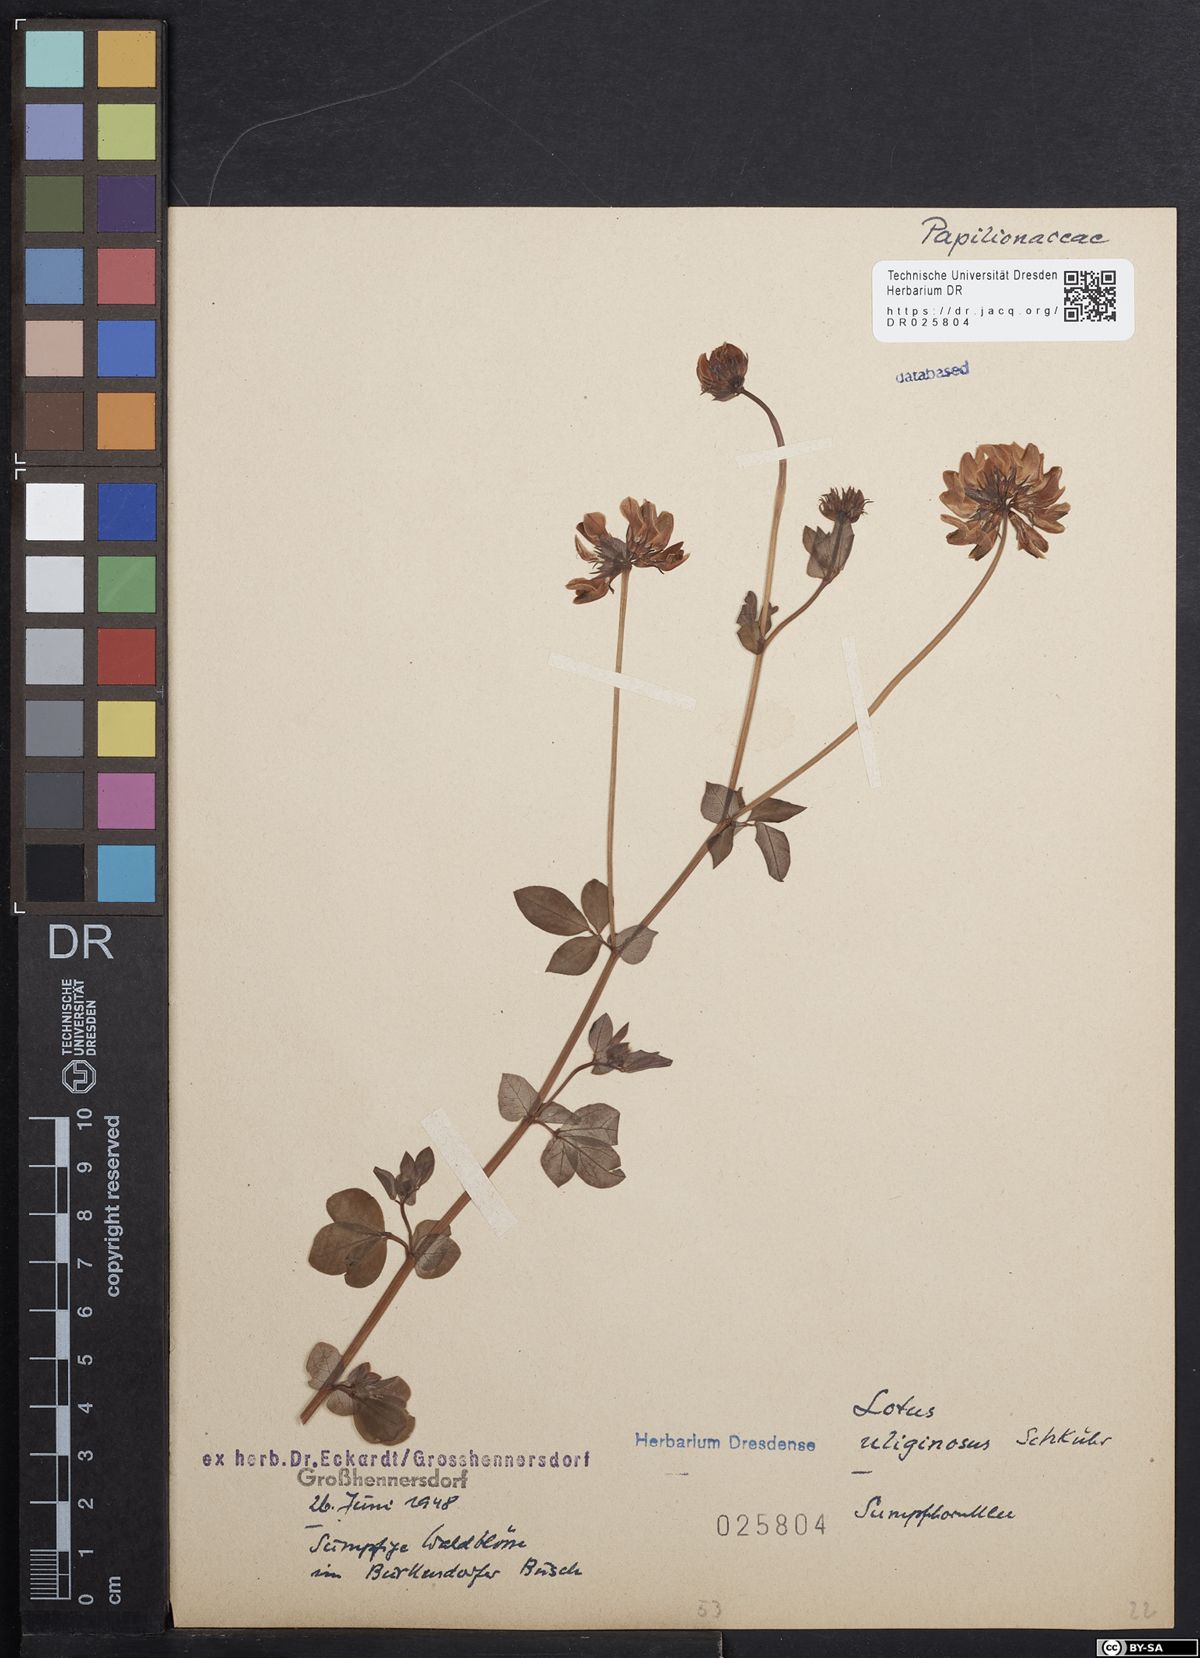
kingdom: Plantae
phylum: Tracheophyta
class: Magnoliopsida
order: Fabales
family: Fabaceae
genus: Lotus
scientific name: Lotus pedunculatus
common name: Greater birdsfoot-trefoil
